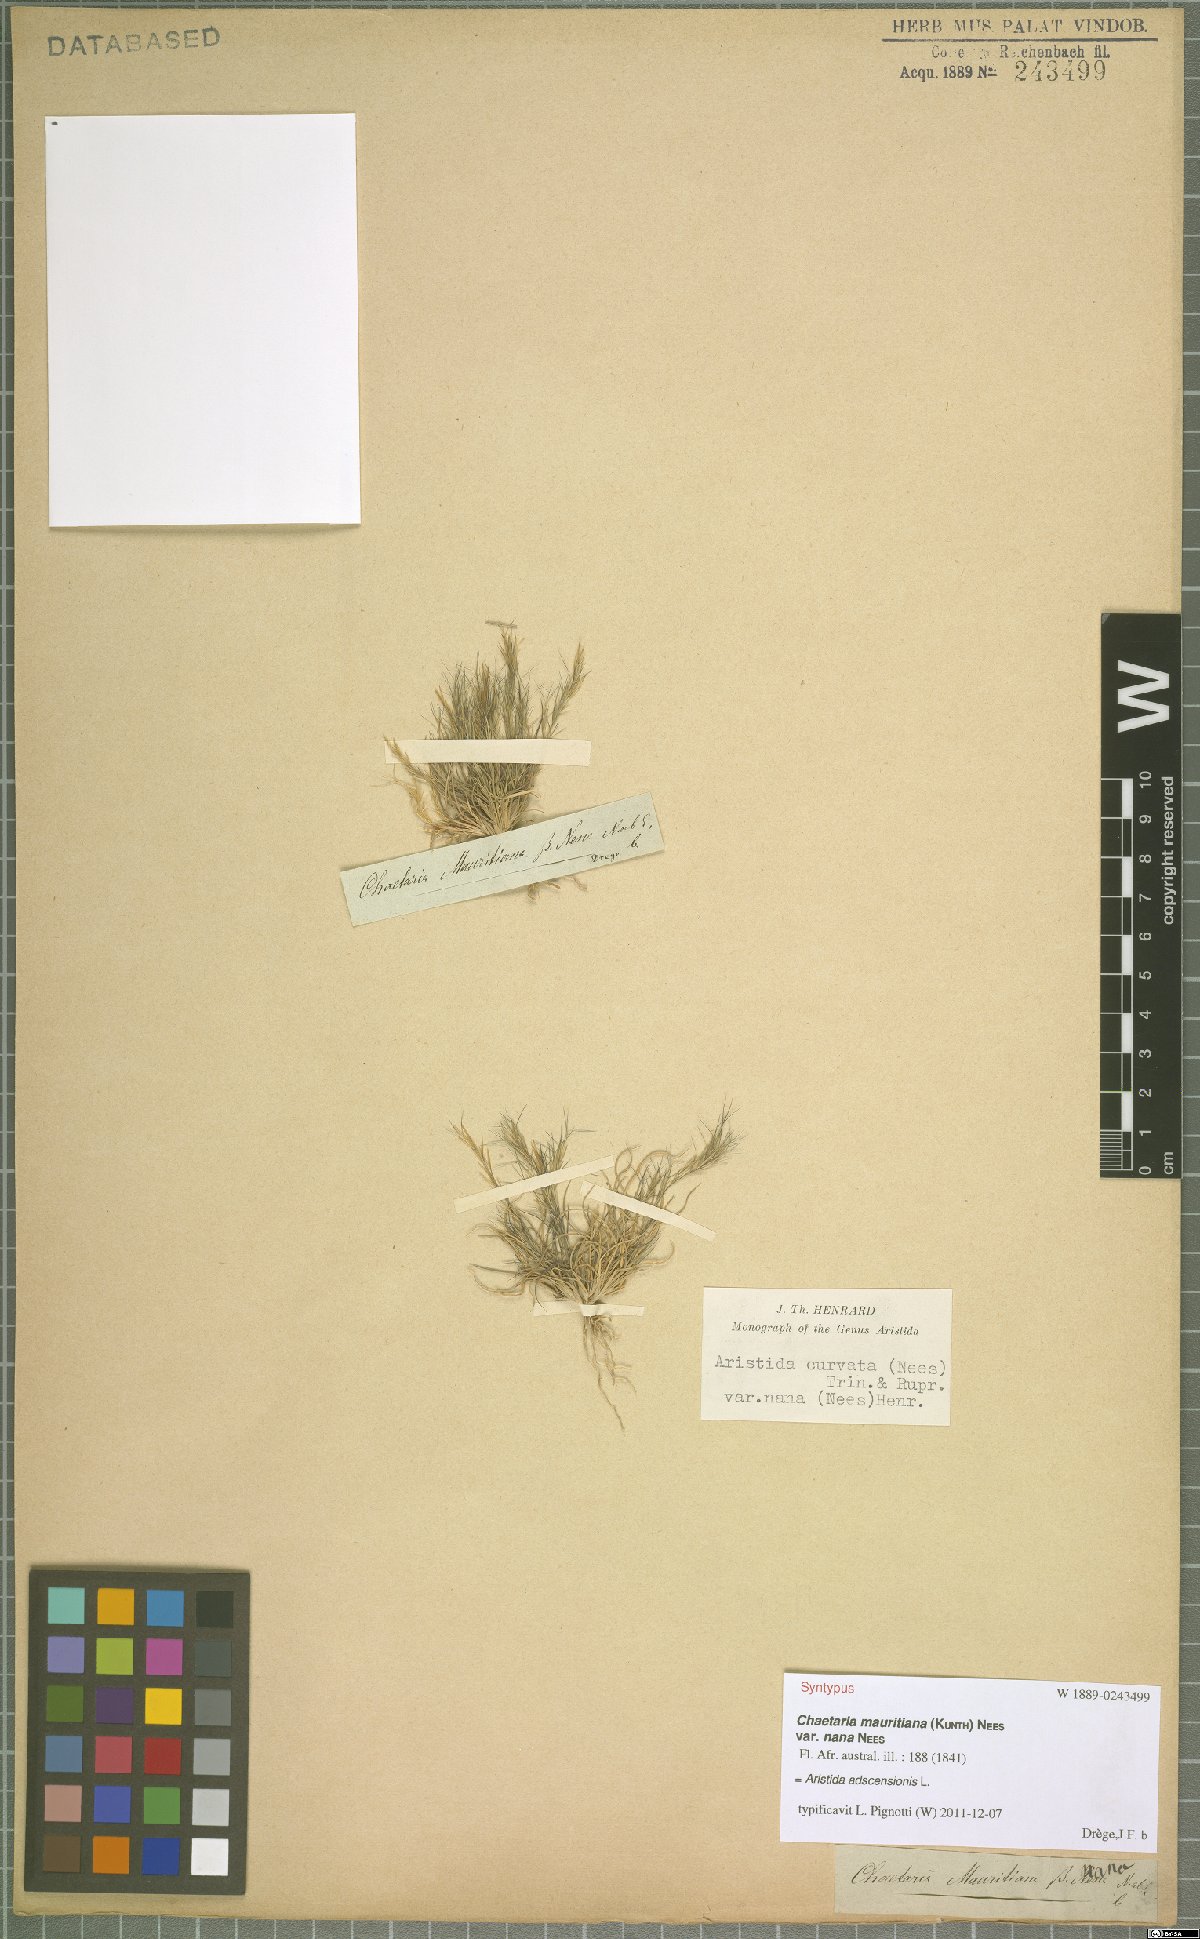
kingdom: Plantae
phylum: Tracheophyta
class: Liliopsida
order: Poales
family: Poaceae
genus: Aristida
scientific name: Aristida adscensionis
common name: Sixweeks threeawn
